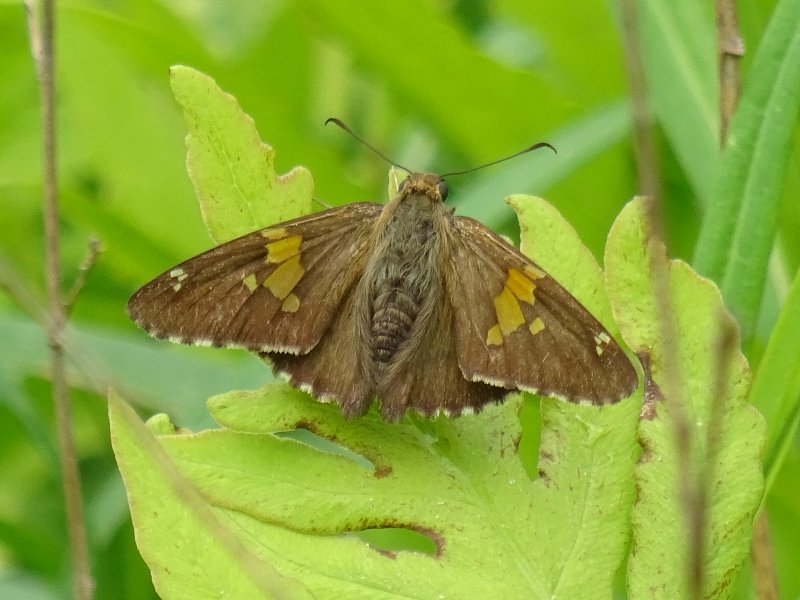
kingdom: Animalia
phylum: Arthropoda
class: Insecta
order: Lepidoptera
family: Hesperiidae
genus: Epargyreus
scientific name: Epargyreus clarus
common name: Silver-spotted Skipper
